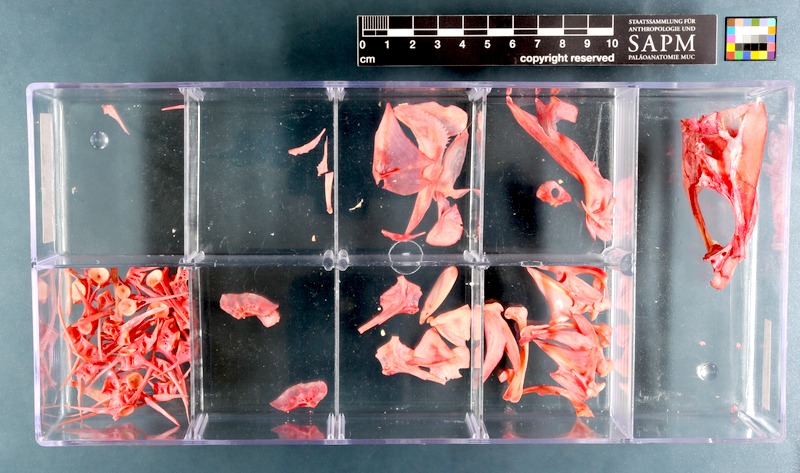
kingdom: Animalia
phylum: Chordata
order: Perciformes
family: Dinopercidae
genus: Dinoperca
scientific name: Dinoperca petersi
